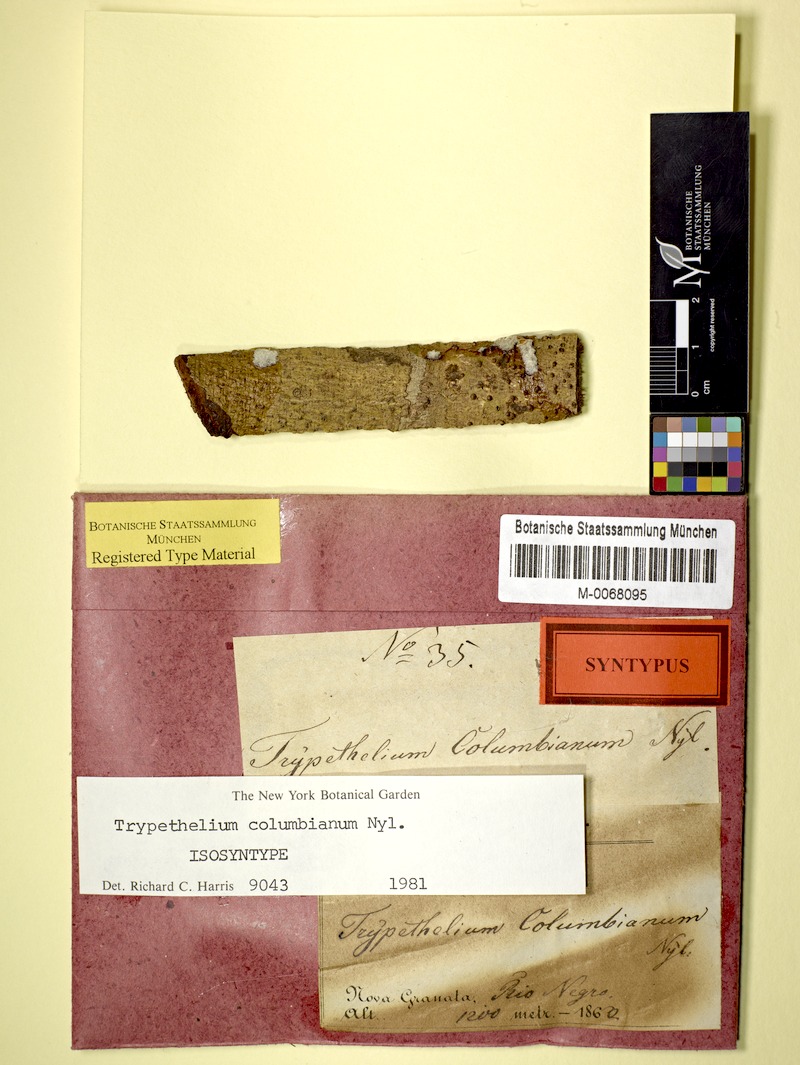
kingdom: Fungi
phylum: Ascomycota
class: Dothideomycetes
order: Trypetheliales
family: Trypetheliaceae
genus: Architrypethelium
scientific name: Architrypethelium columbianum
